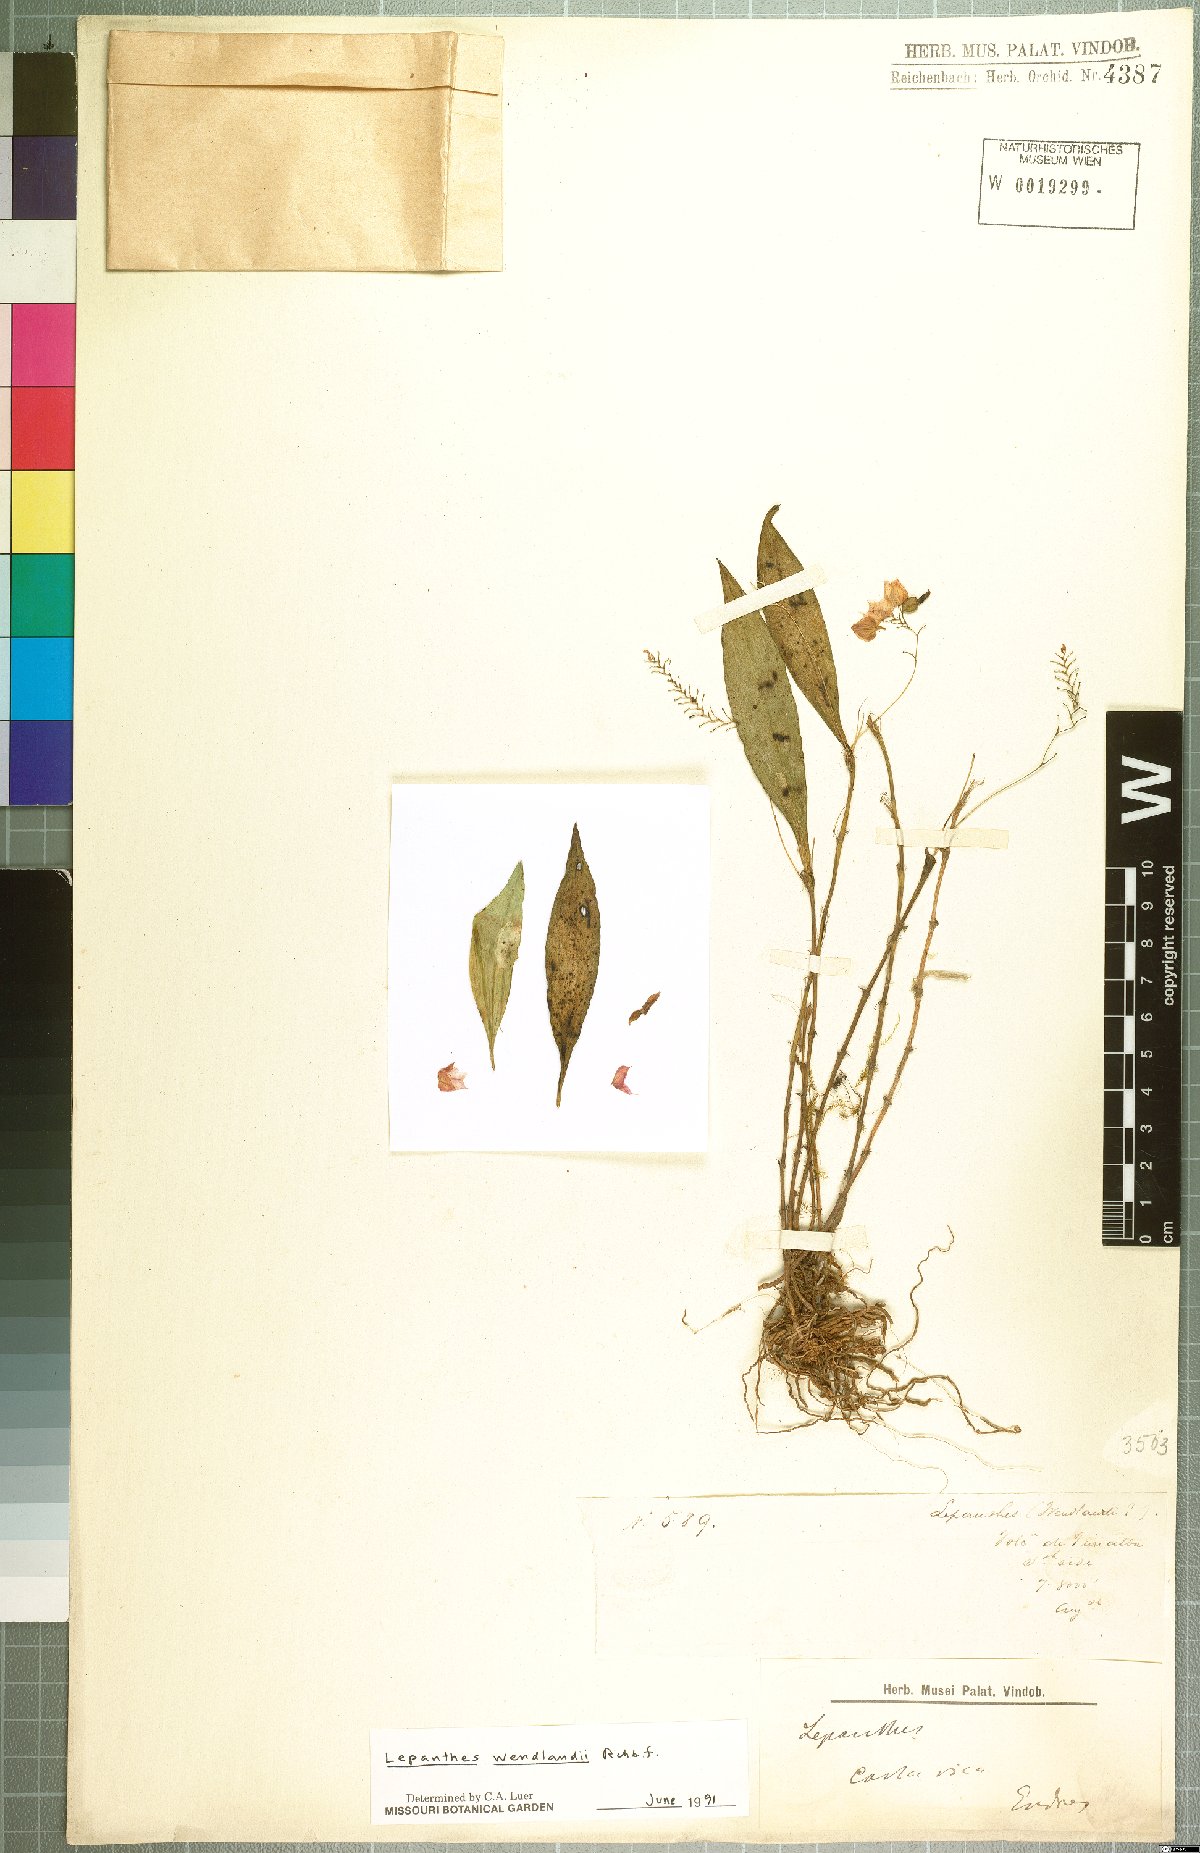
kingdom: Plantae
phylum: Tracheophyta
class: Liliopsida
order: Asparagales
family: Orchidaceae
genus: Lepanthes
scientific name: Lepanthes wendlandii
